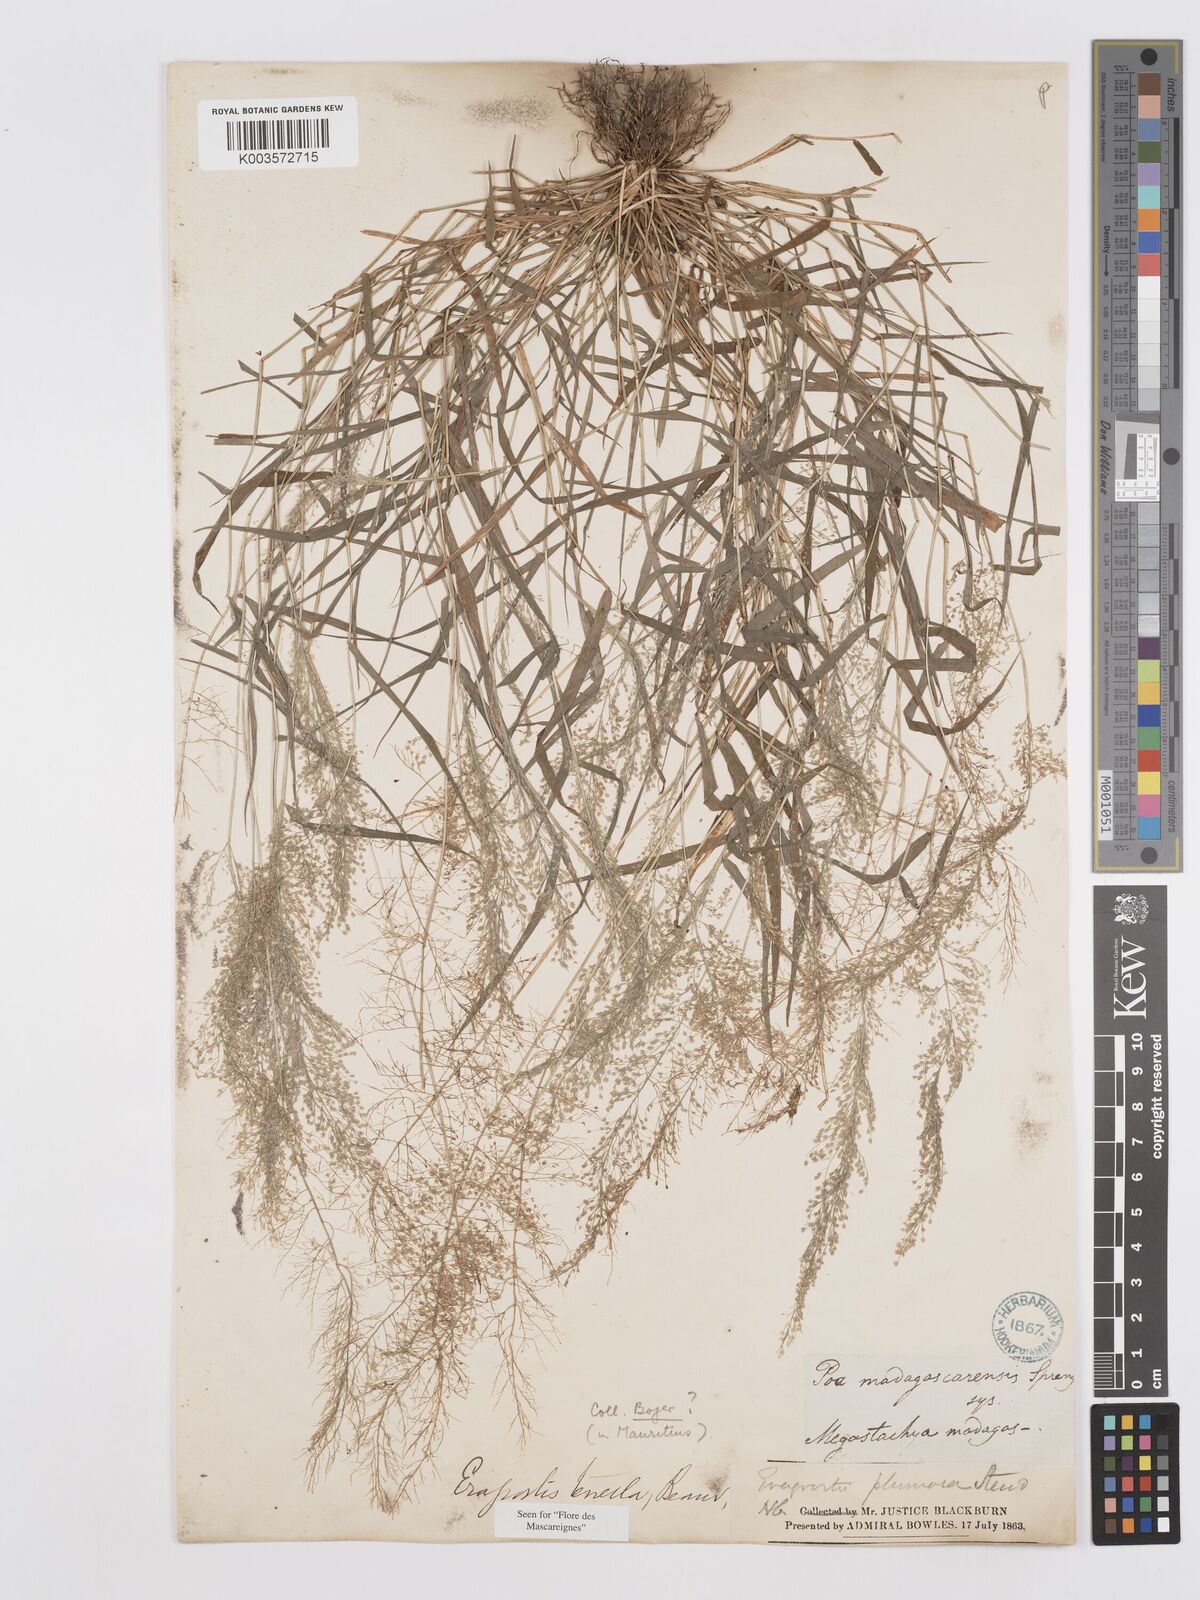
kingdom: Plantae
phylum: Tracheophyta
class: Liliopsida
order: Poales
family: Poaceae
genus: Eragrostis
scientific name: Eragrostis tenella
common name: Japanese lovegrass
